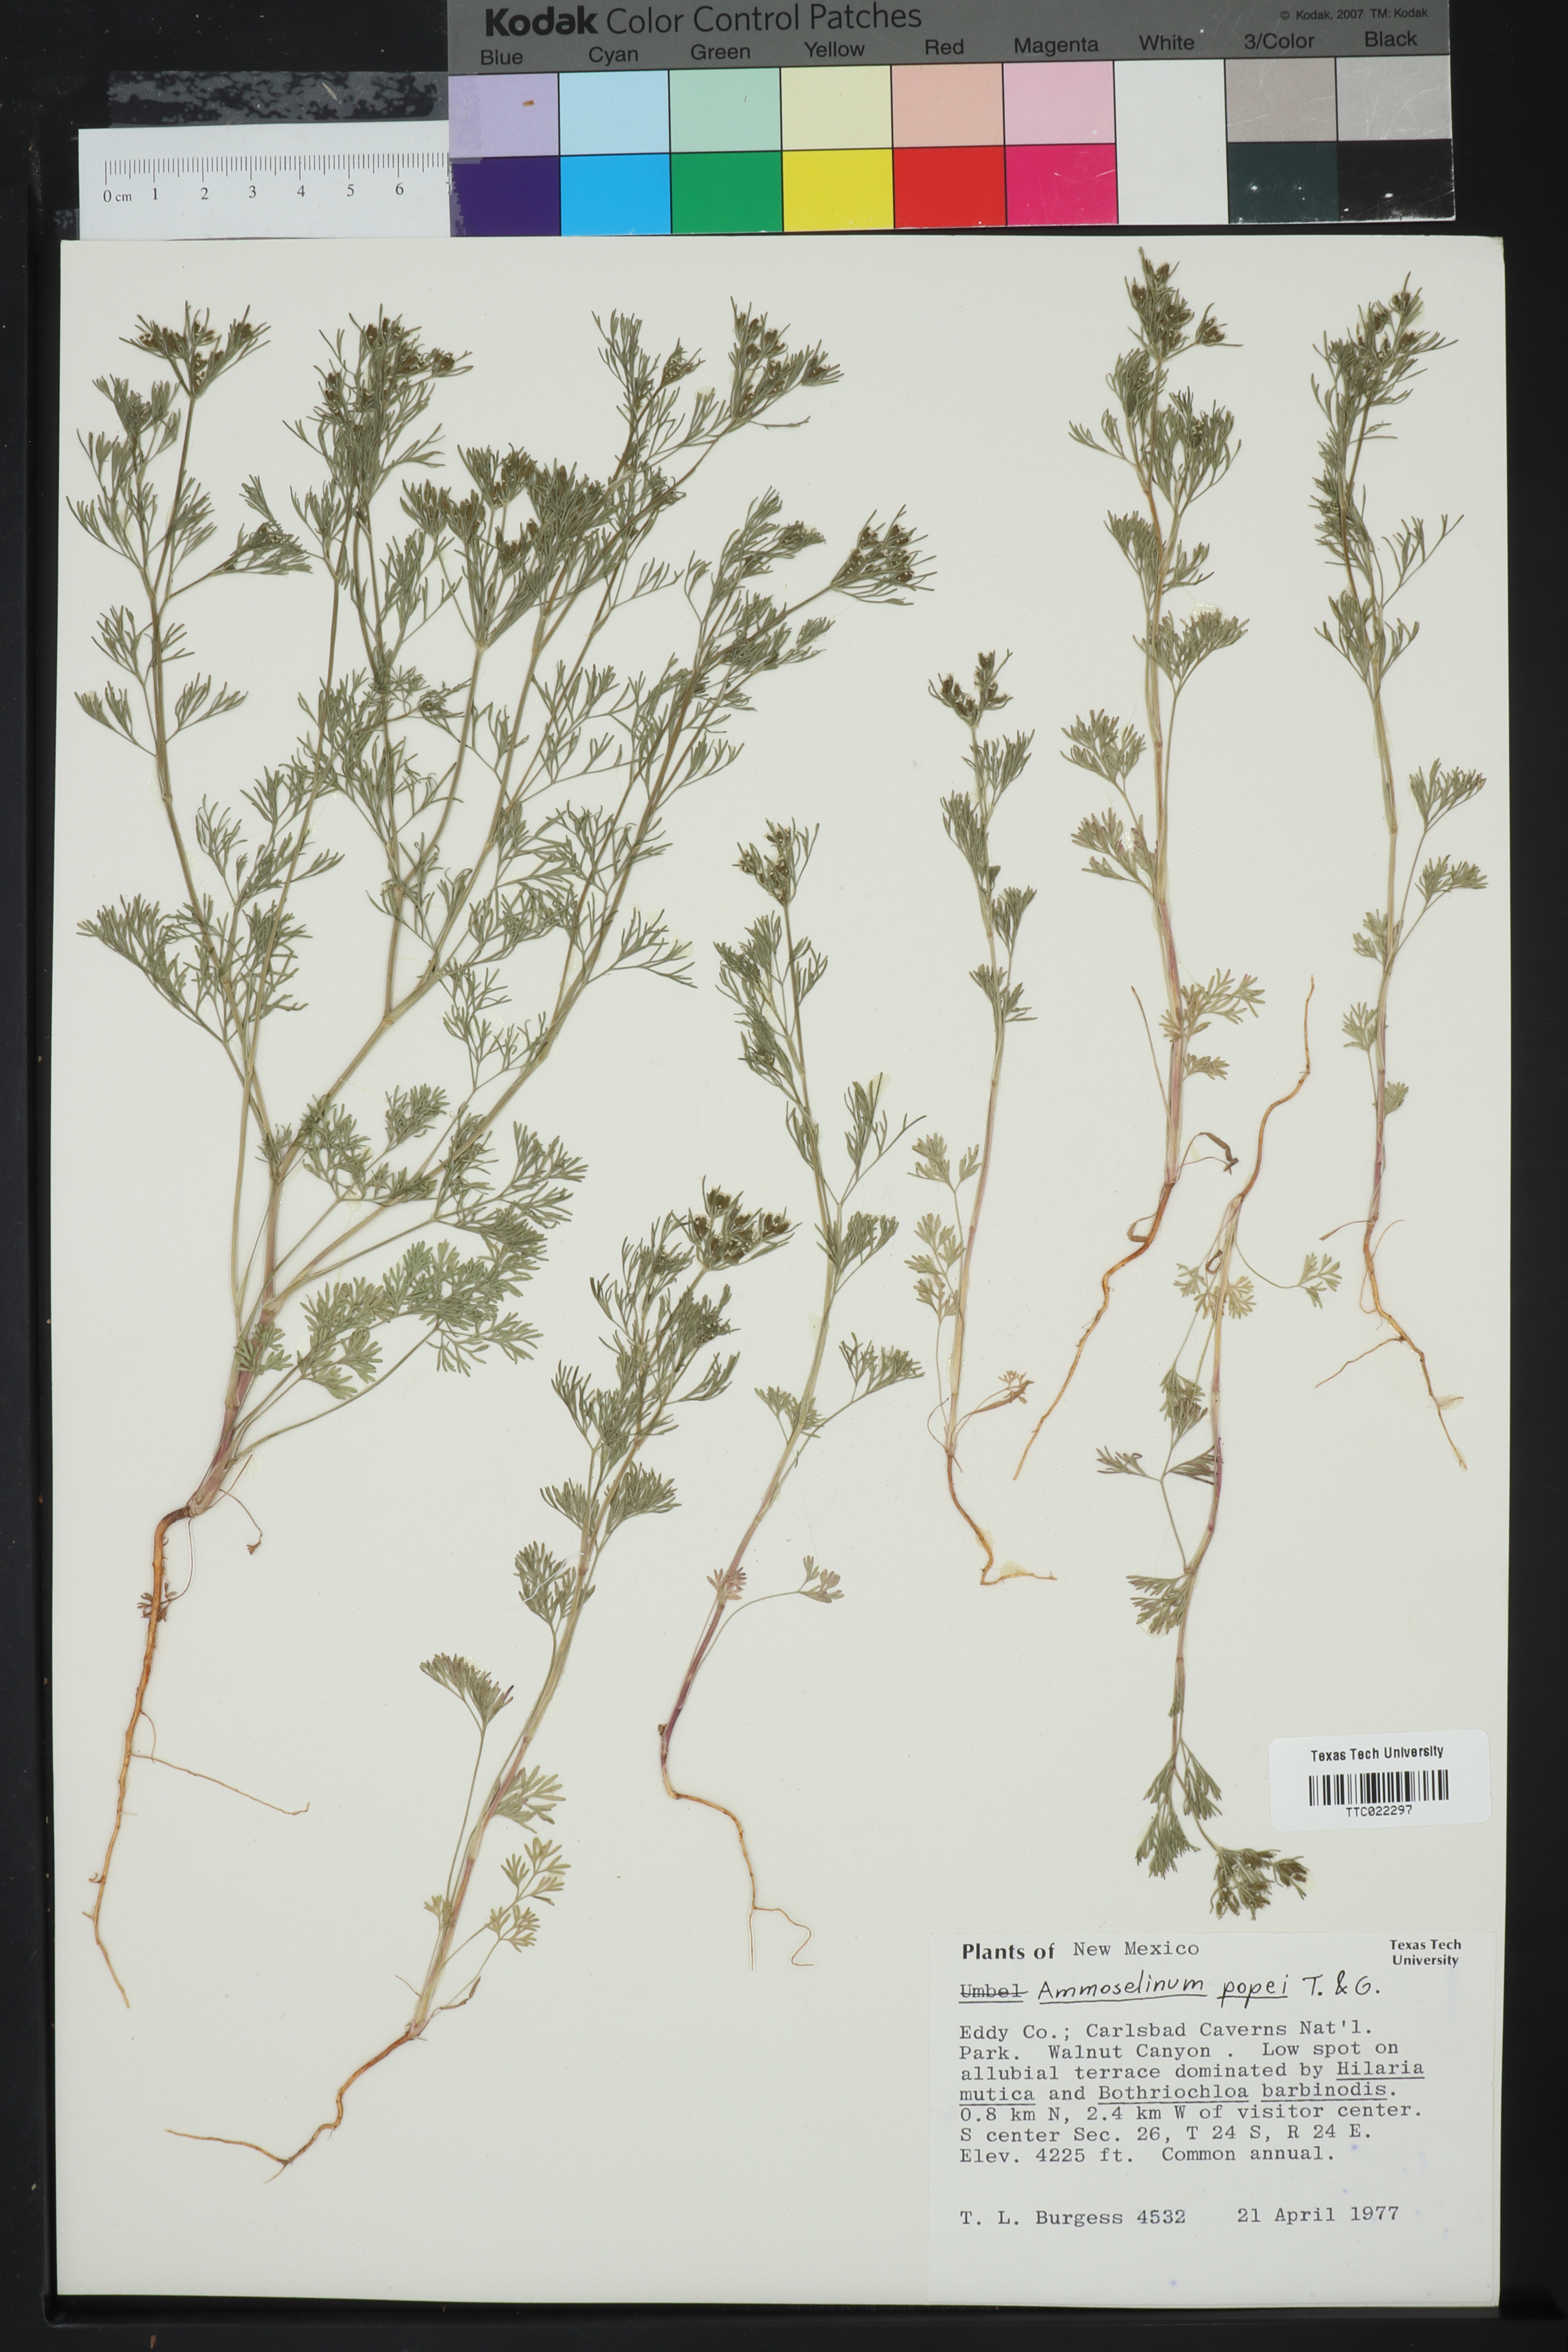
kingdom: Plantae
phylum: Tracheophyta
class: Magnoliopsida
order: Apiales
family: Apiaceae
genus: Ammoselinum
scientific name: Ammoselinum popei
